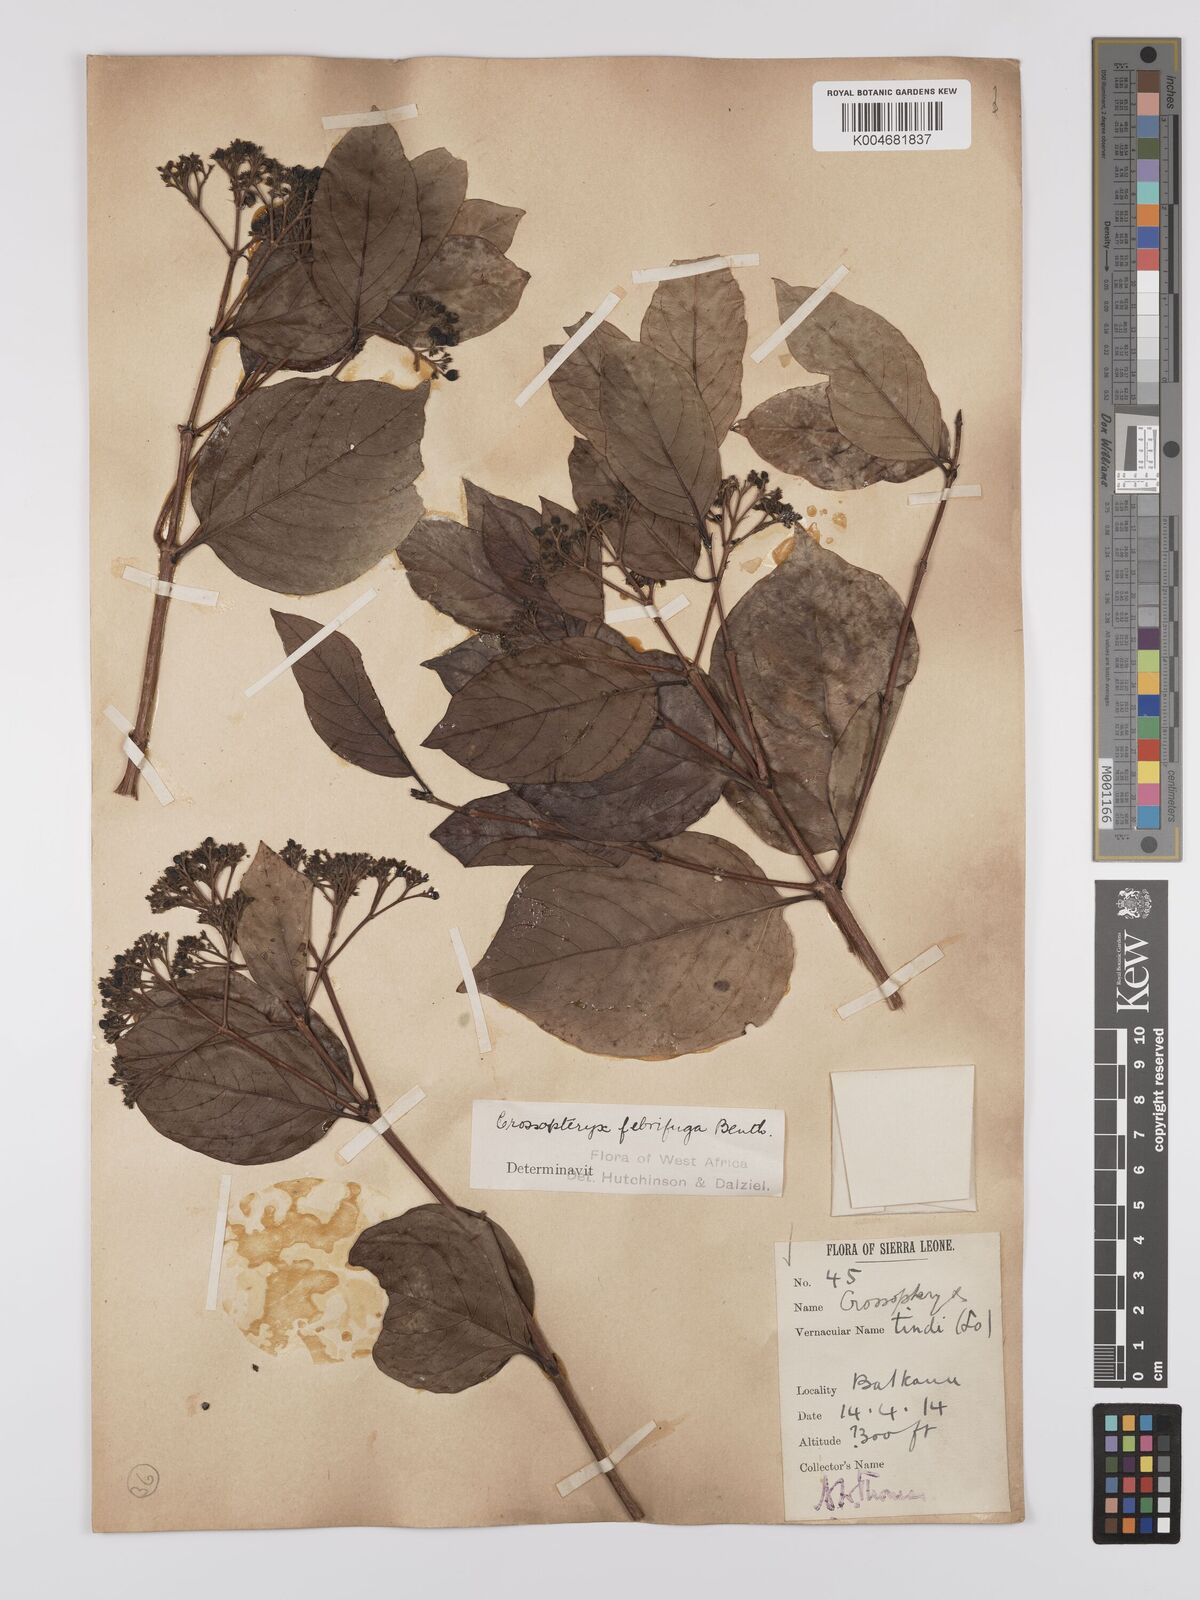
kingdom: Plantae
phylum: Tracheophyta
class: Magnoliopsida
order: Gentianales
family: Rubiaceae
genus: Crossopteryx
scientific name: Crossopteryx febrifuga
